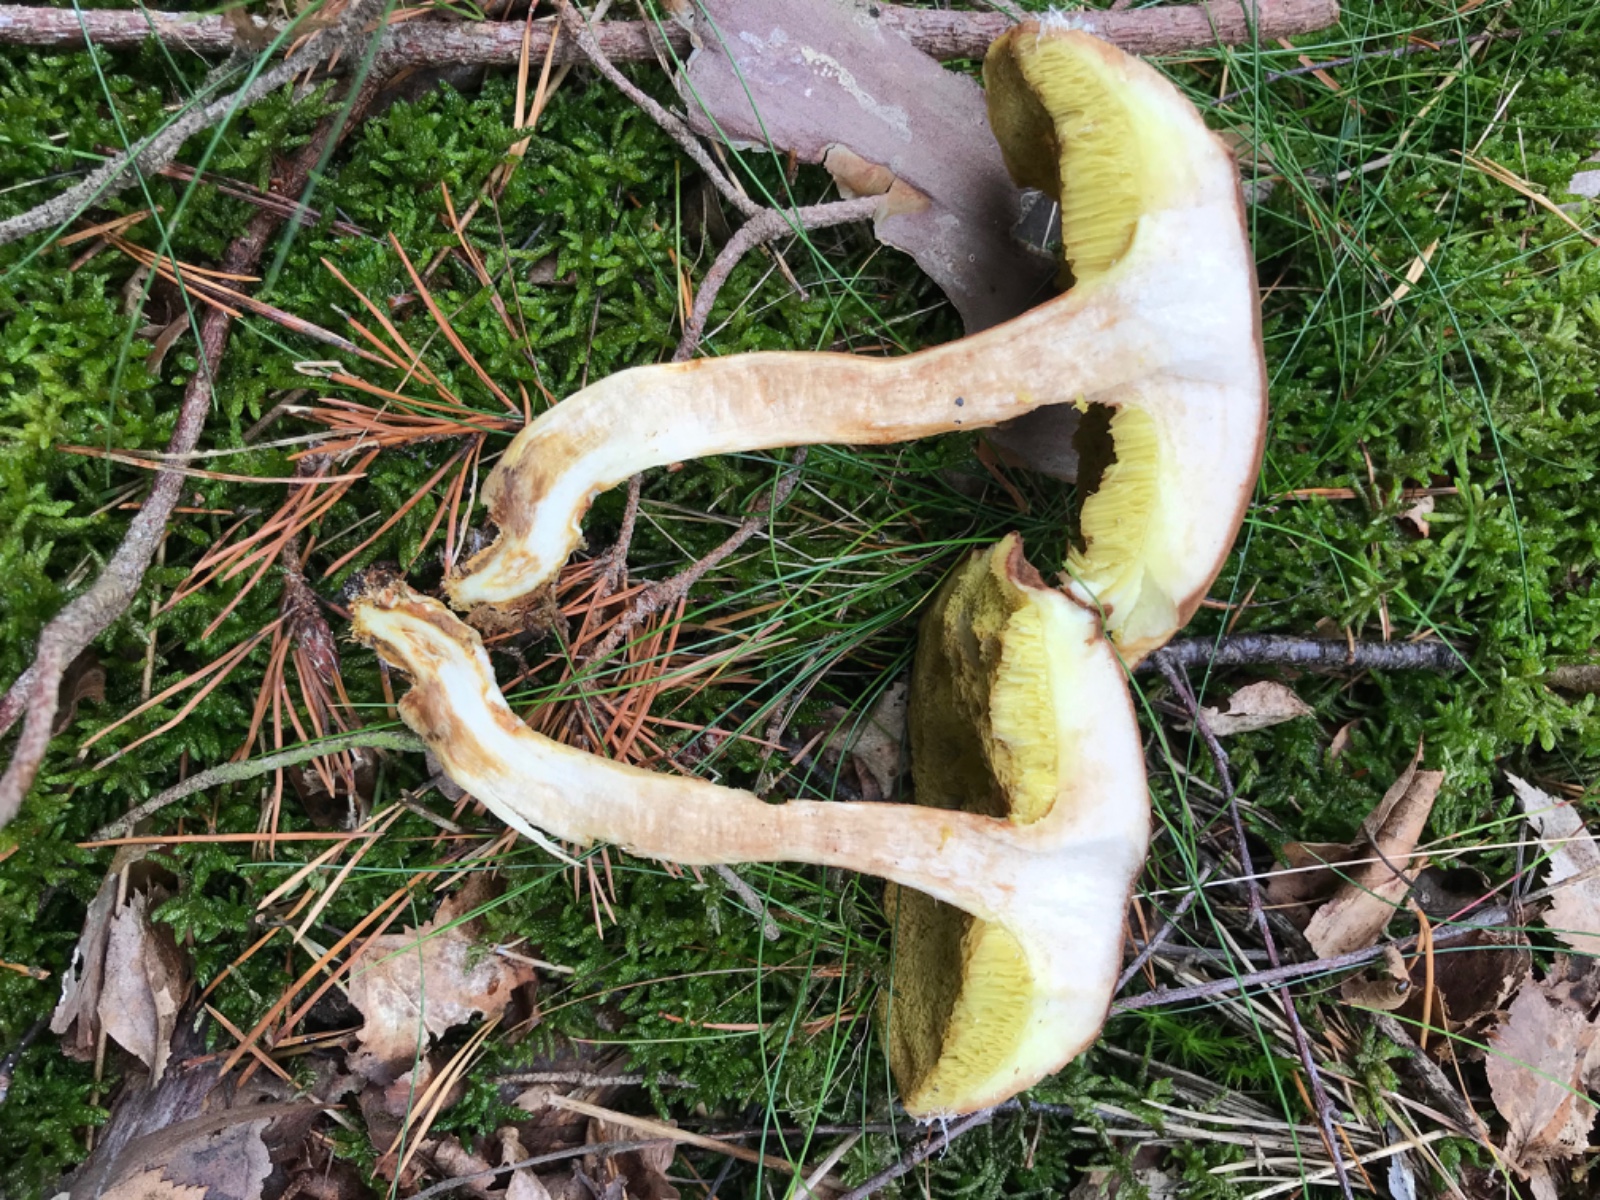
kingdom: Fungi
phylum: Basidiomycota
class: Agaricomycetes
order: Boletales
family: Boletaceae
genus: Xerocomus
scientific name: Xerocomus ferrugineus
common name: vaskeskinds-rørhat
